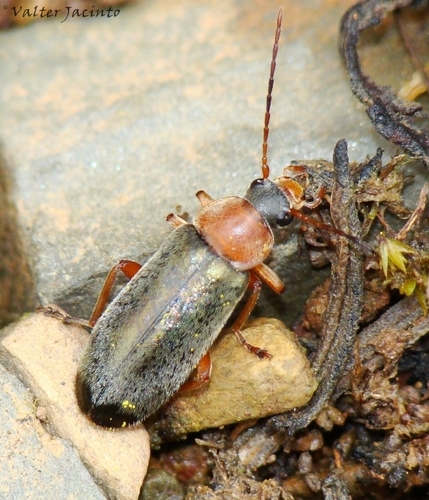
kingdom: Animalia
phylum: Arthropoda
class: Insecta
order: Coleoptera
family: Melandryidae
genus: Osphya
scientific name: Osphya vandalitiae
